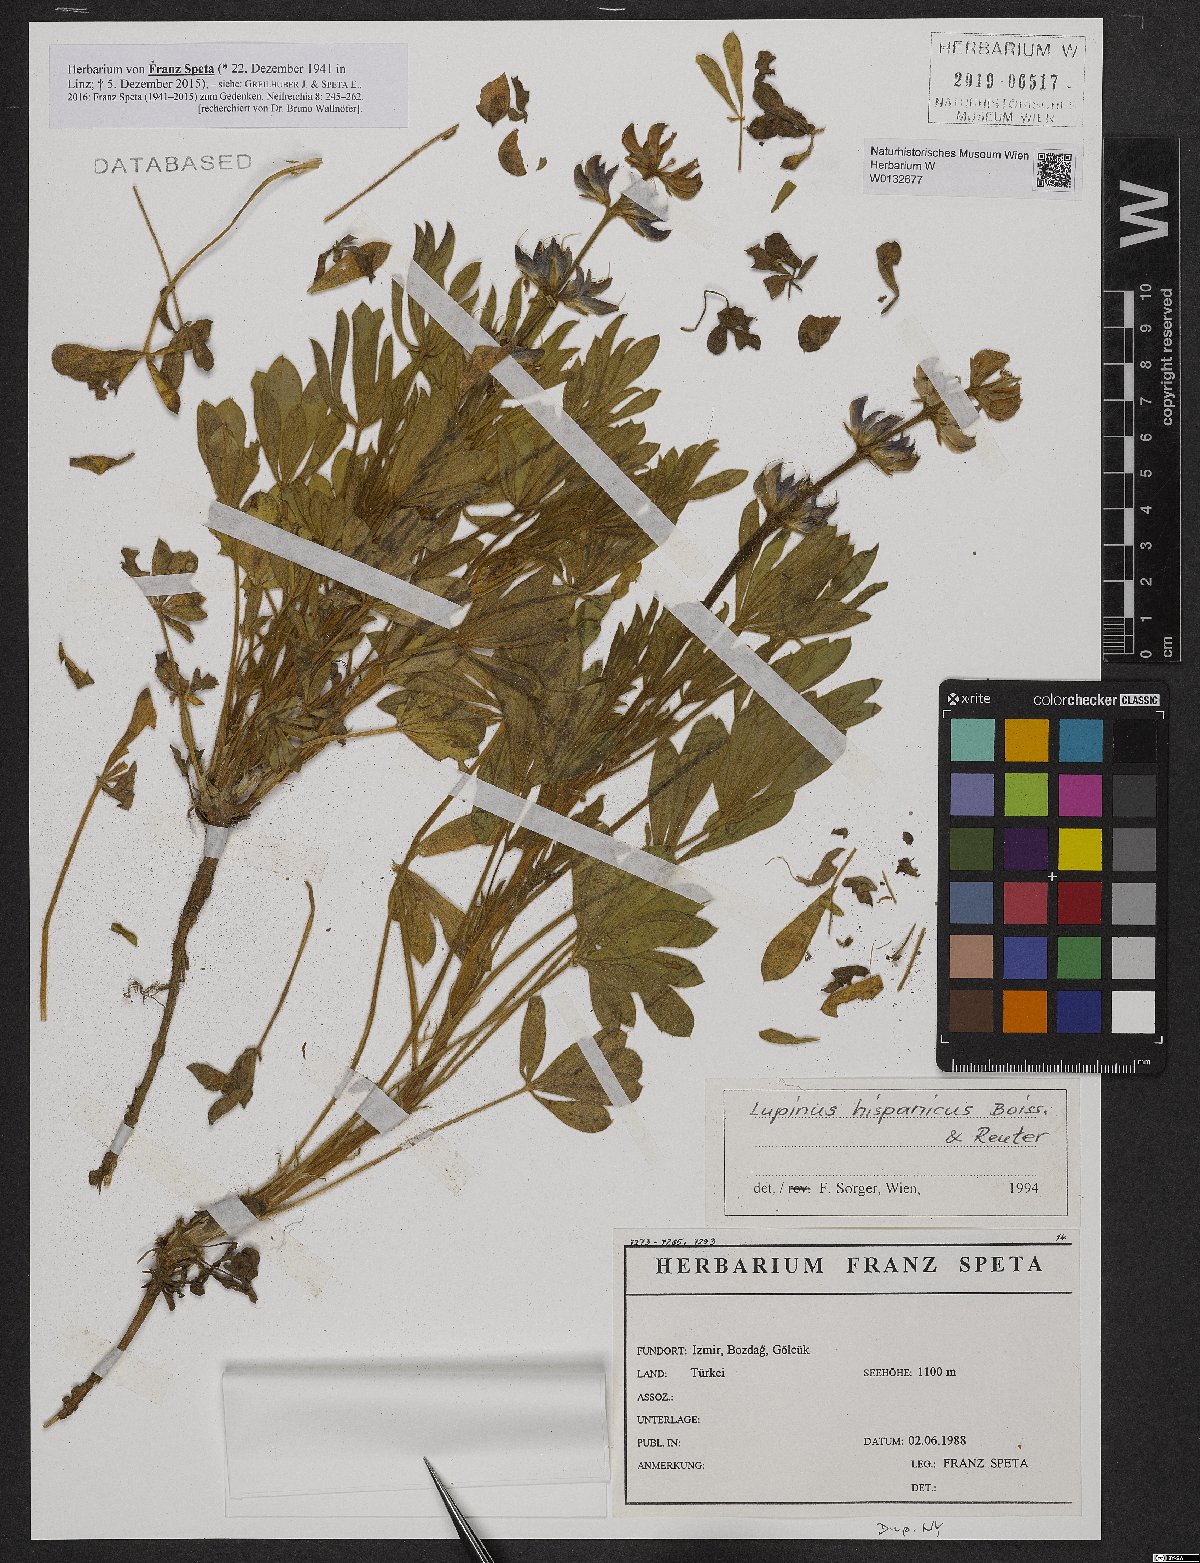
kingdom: Plantae
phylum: Tracheophyta
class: Magnoliopsida
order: Fabales
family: Fabaceae
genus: Lupinus
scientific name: Lupinus hispanicus
